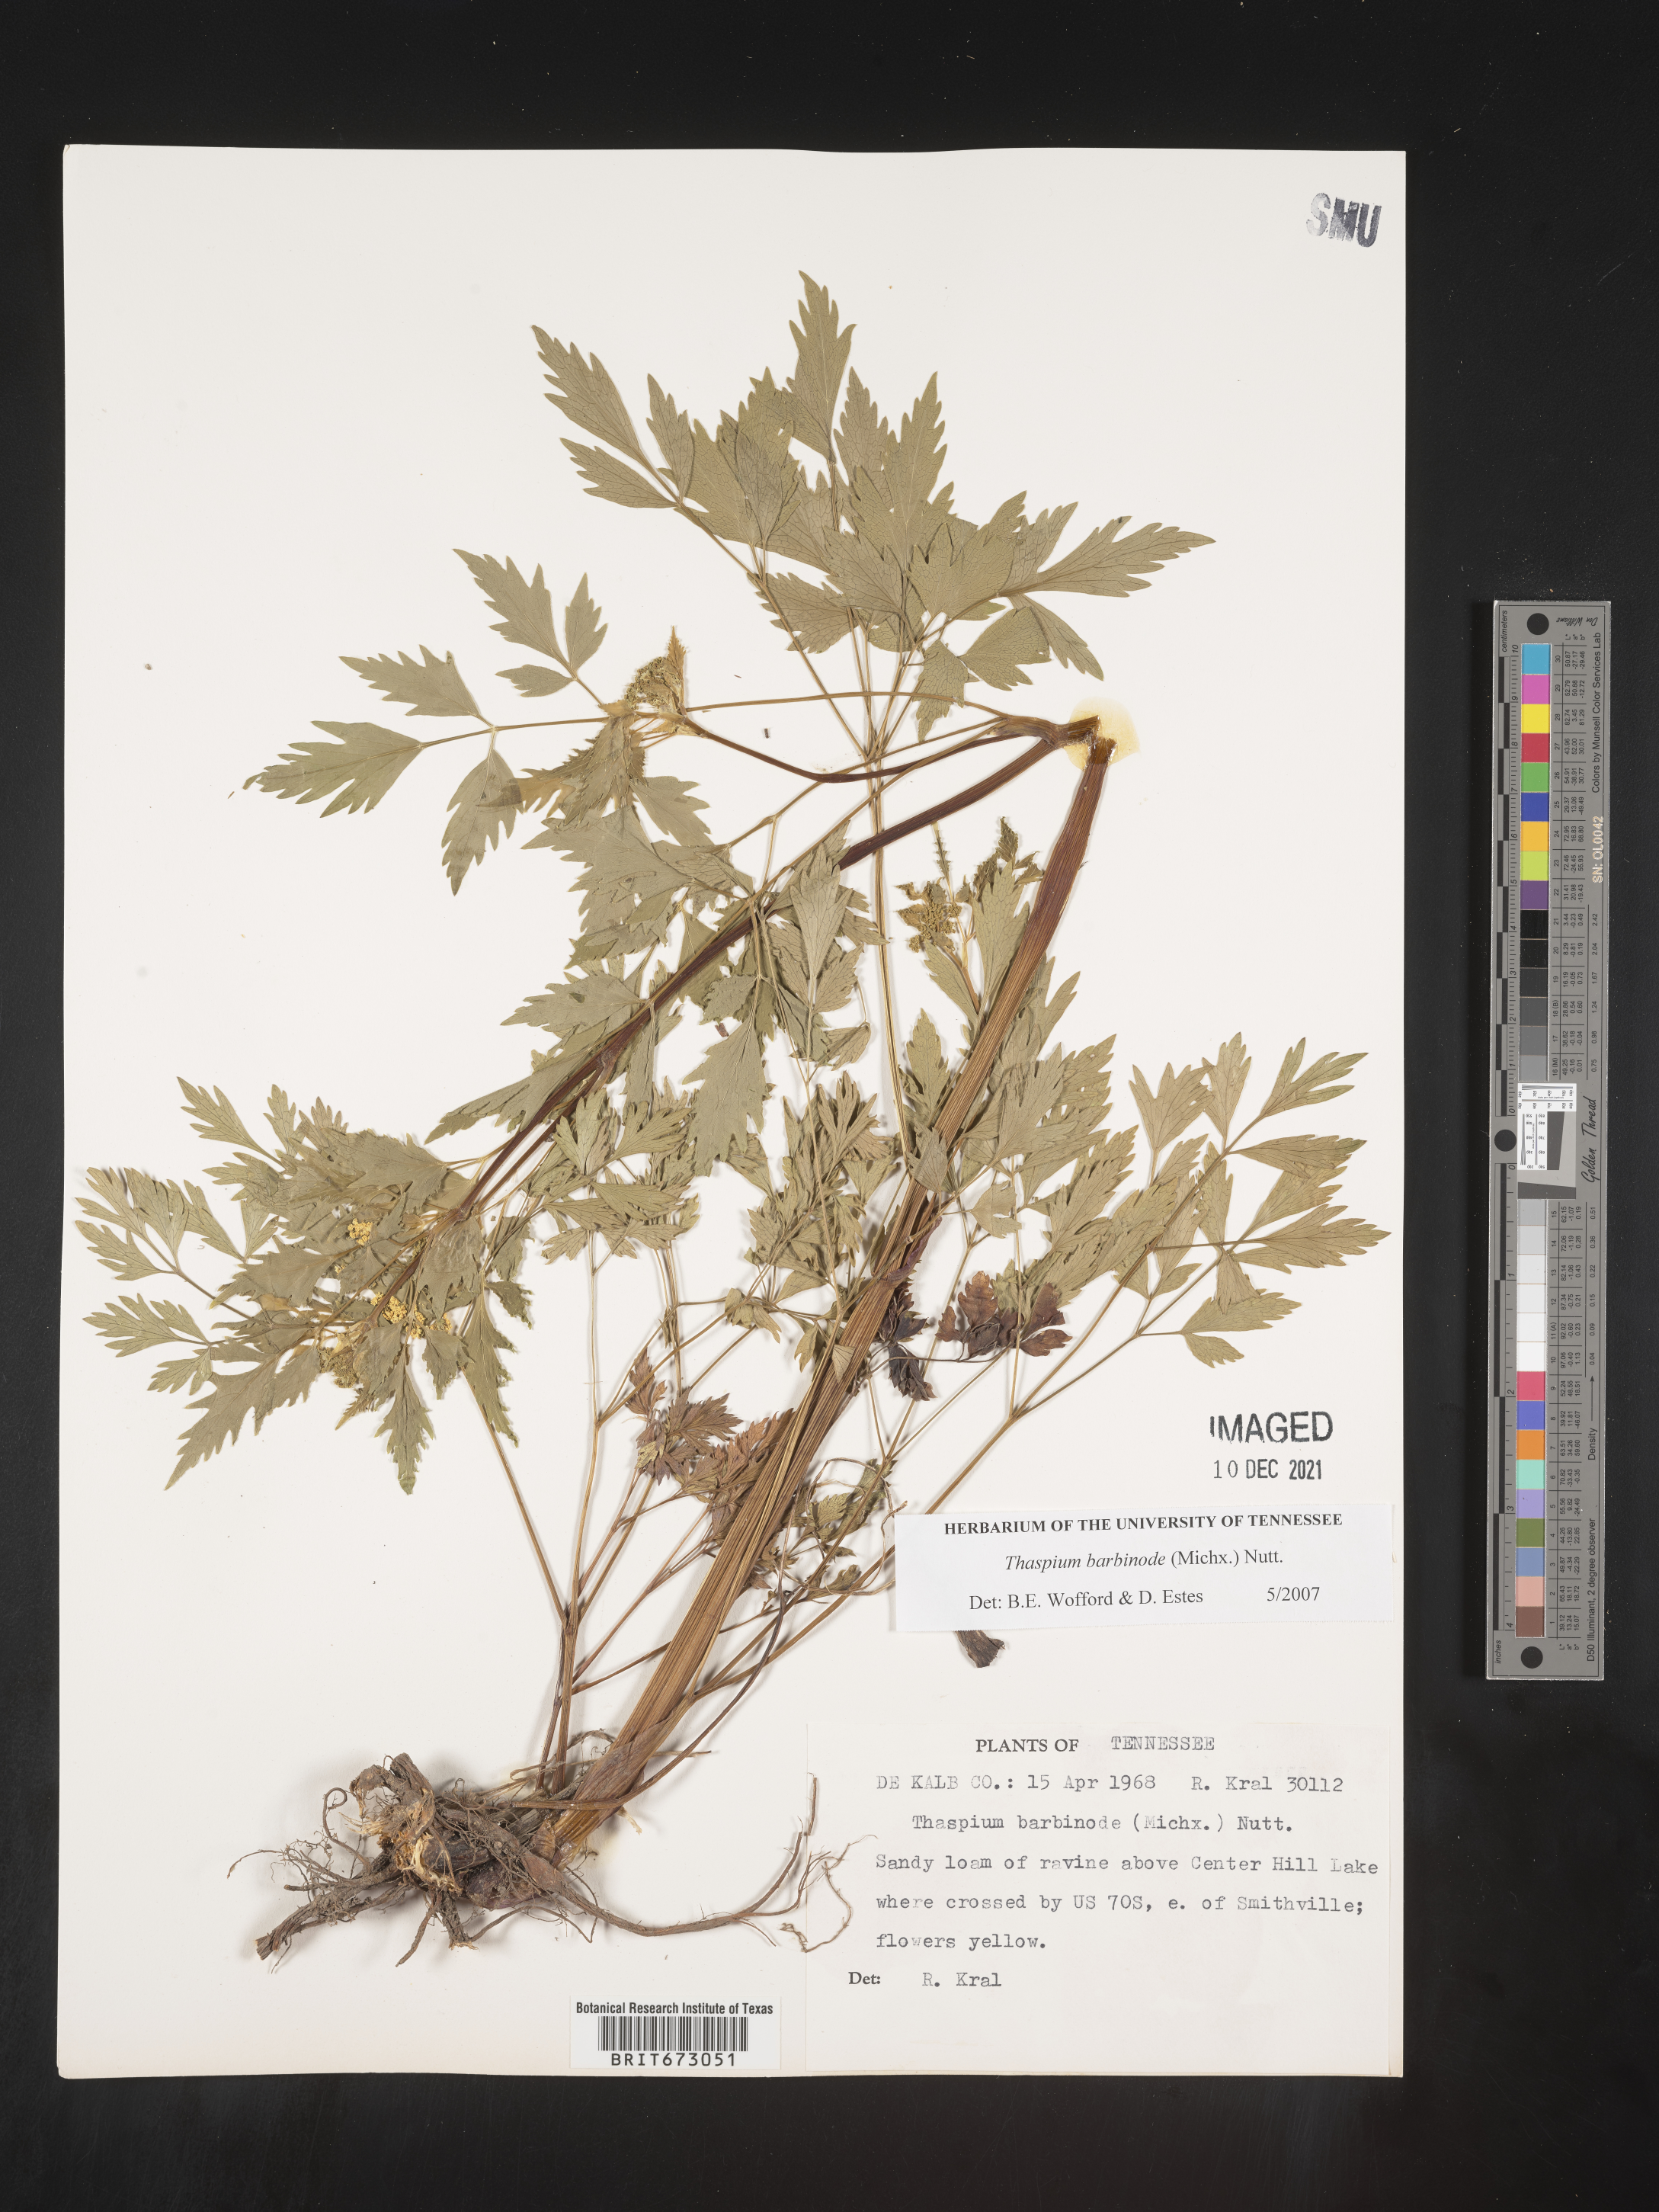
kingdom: Plantae
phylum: Tracheophyta
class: Magnoliopsida
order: Apiales
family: Apiaceae
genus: Thaspium
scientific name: Thaspium barbinode
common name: Bearded meadow-parsnip
